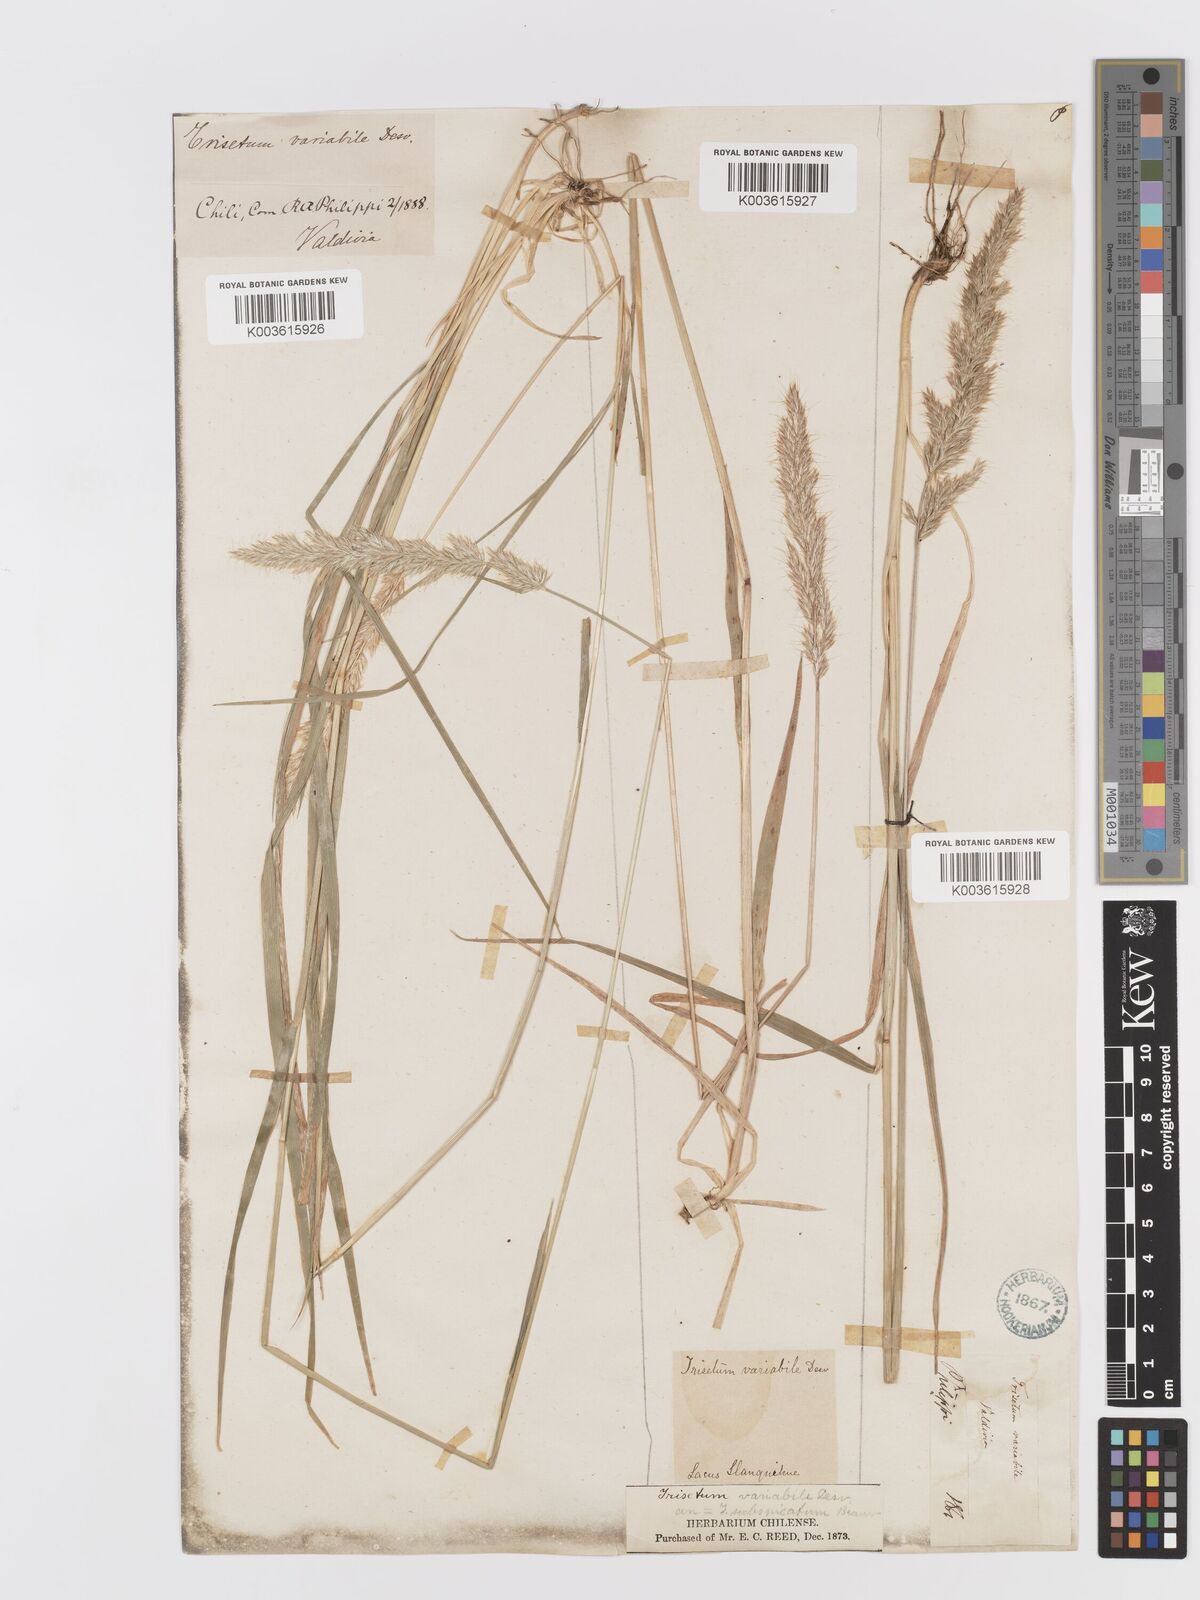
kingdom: Plantae
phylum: Tracheophyta
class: Liliopsida
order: Poales
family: Poaceae
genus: Koeleria
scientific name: Koeleria spicata
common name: Mountain trisetum
